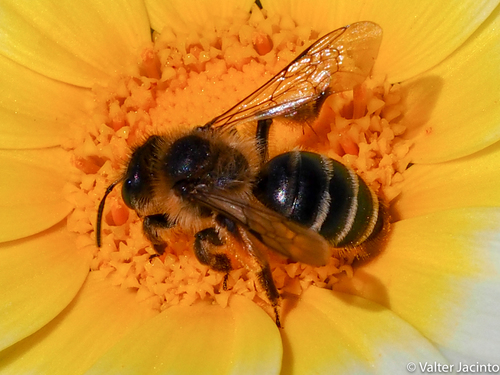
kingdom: Animalia
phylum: Arthropoda
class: Insecta
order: Hymenoptera
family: Andrenidae
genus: Andrena
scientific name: Andrena flavipes
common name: Yellow-legged mining bee
